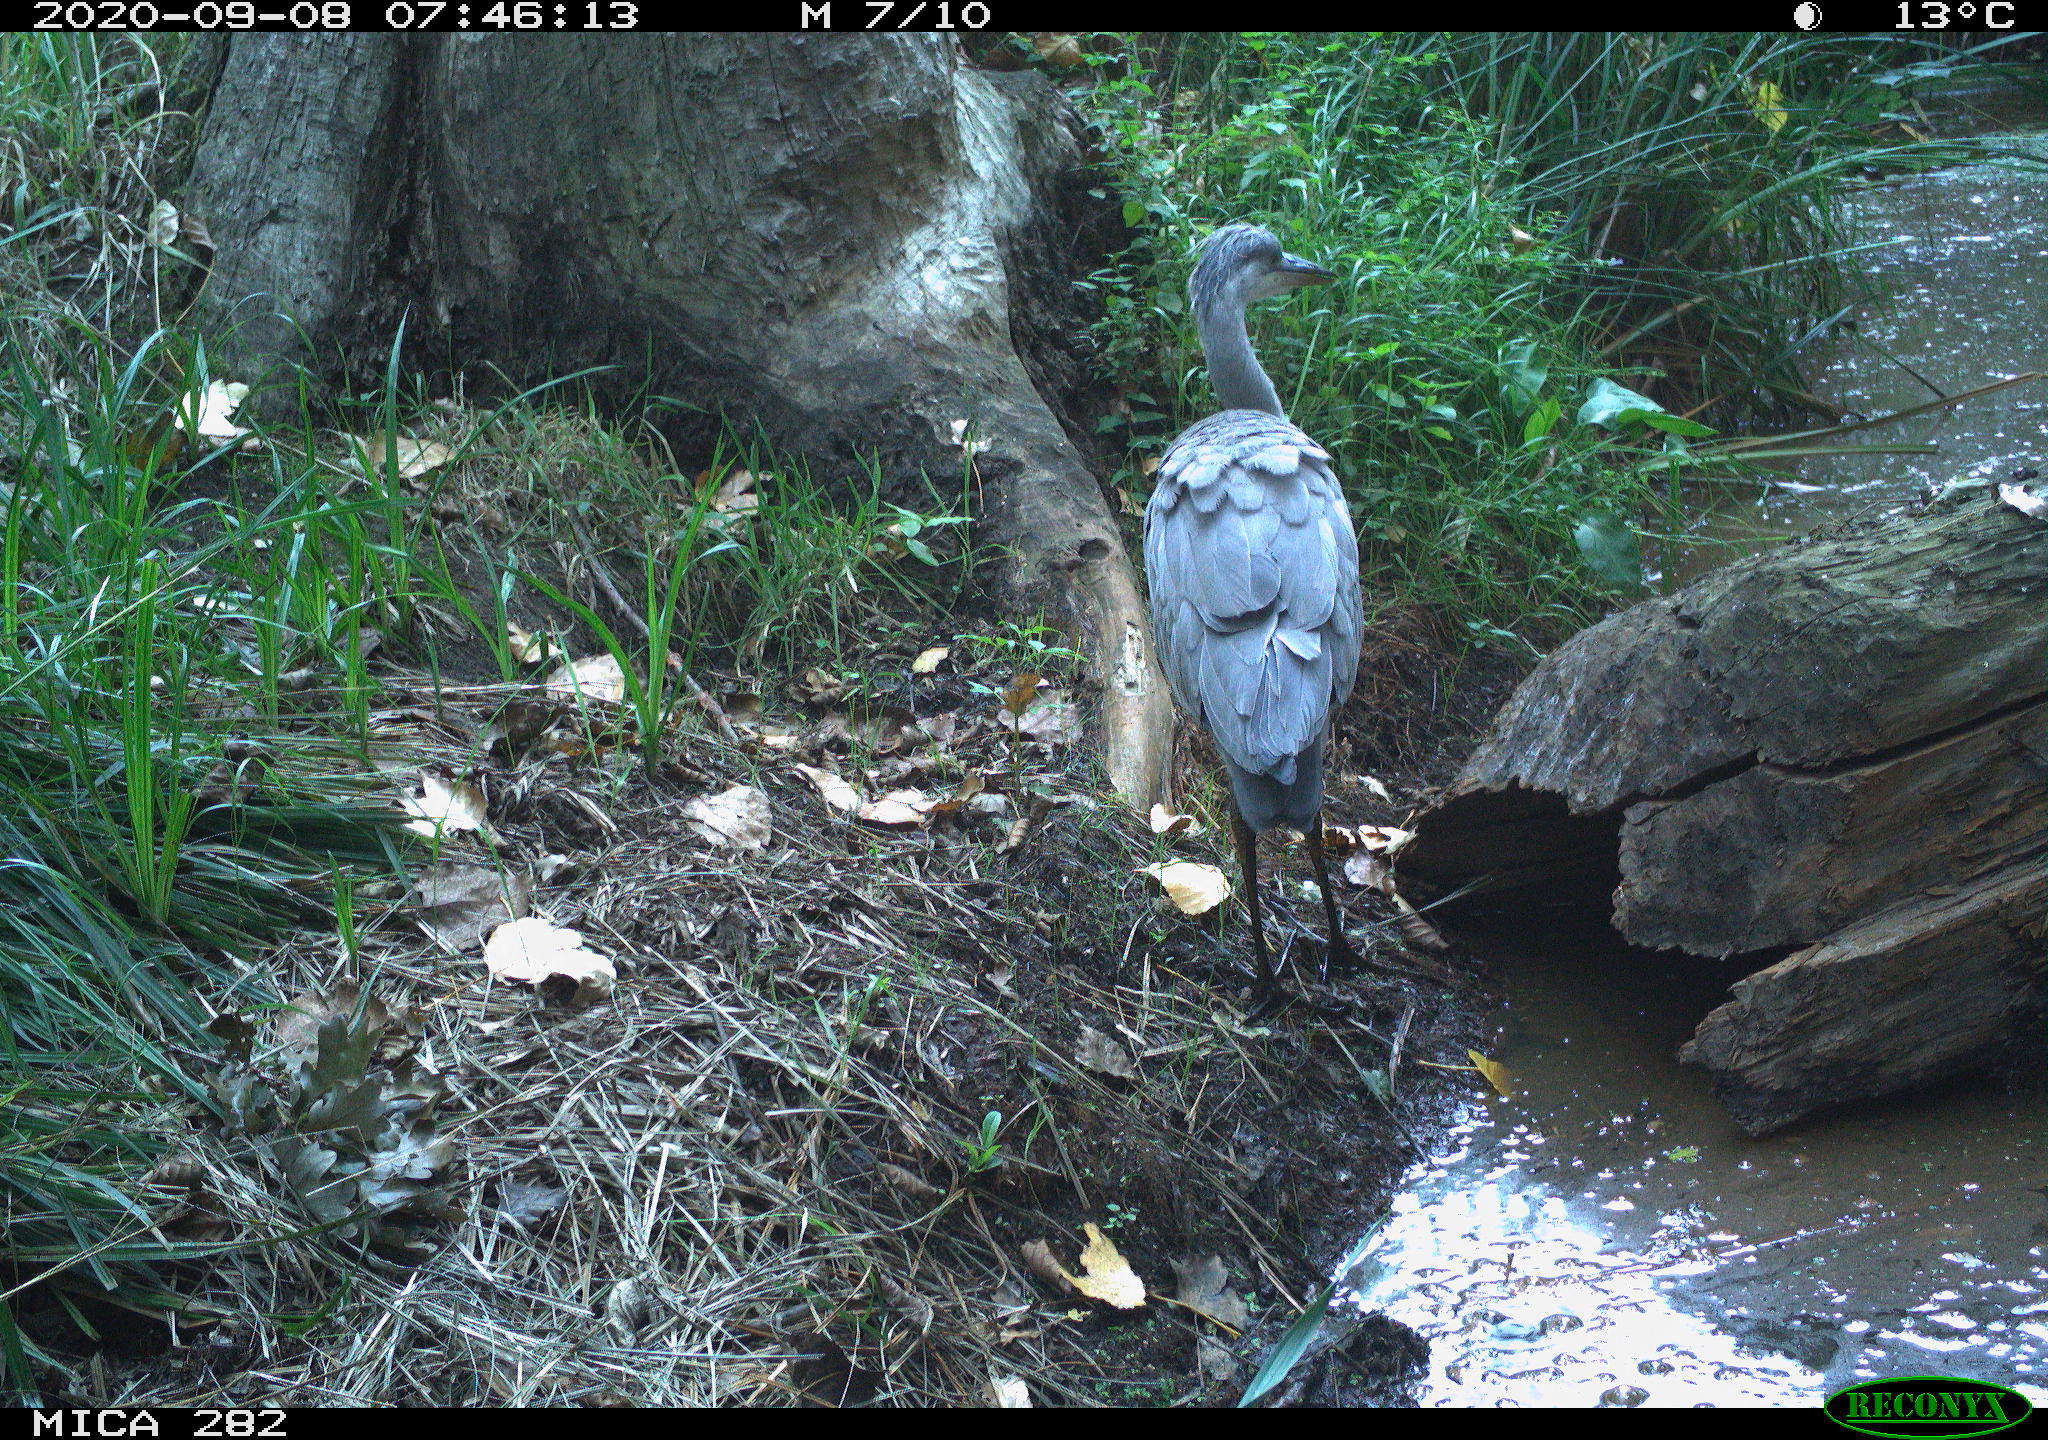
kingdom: Animalia
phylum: Chordata
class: Aves
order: Pelecaniformes
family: Ardeidae
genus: Ardea
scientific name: Ardea cinerea
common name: Grey heron
